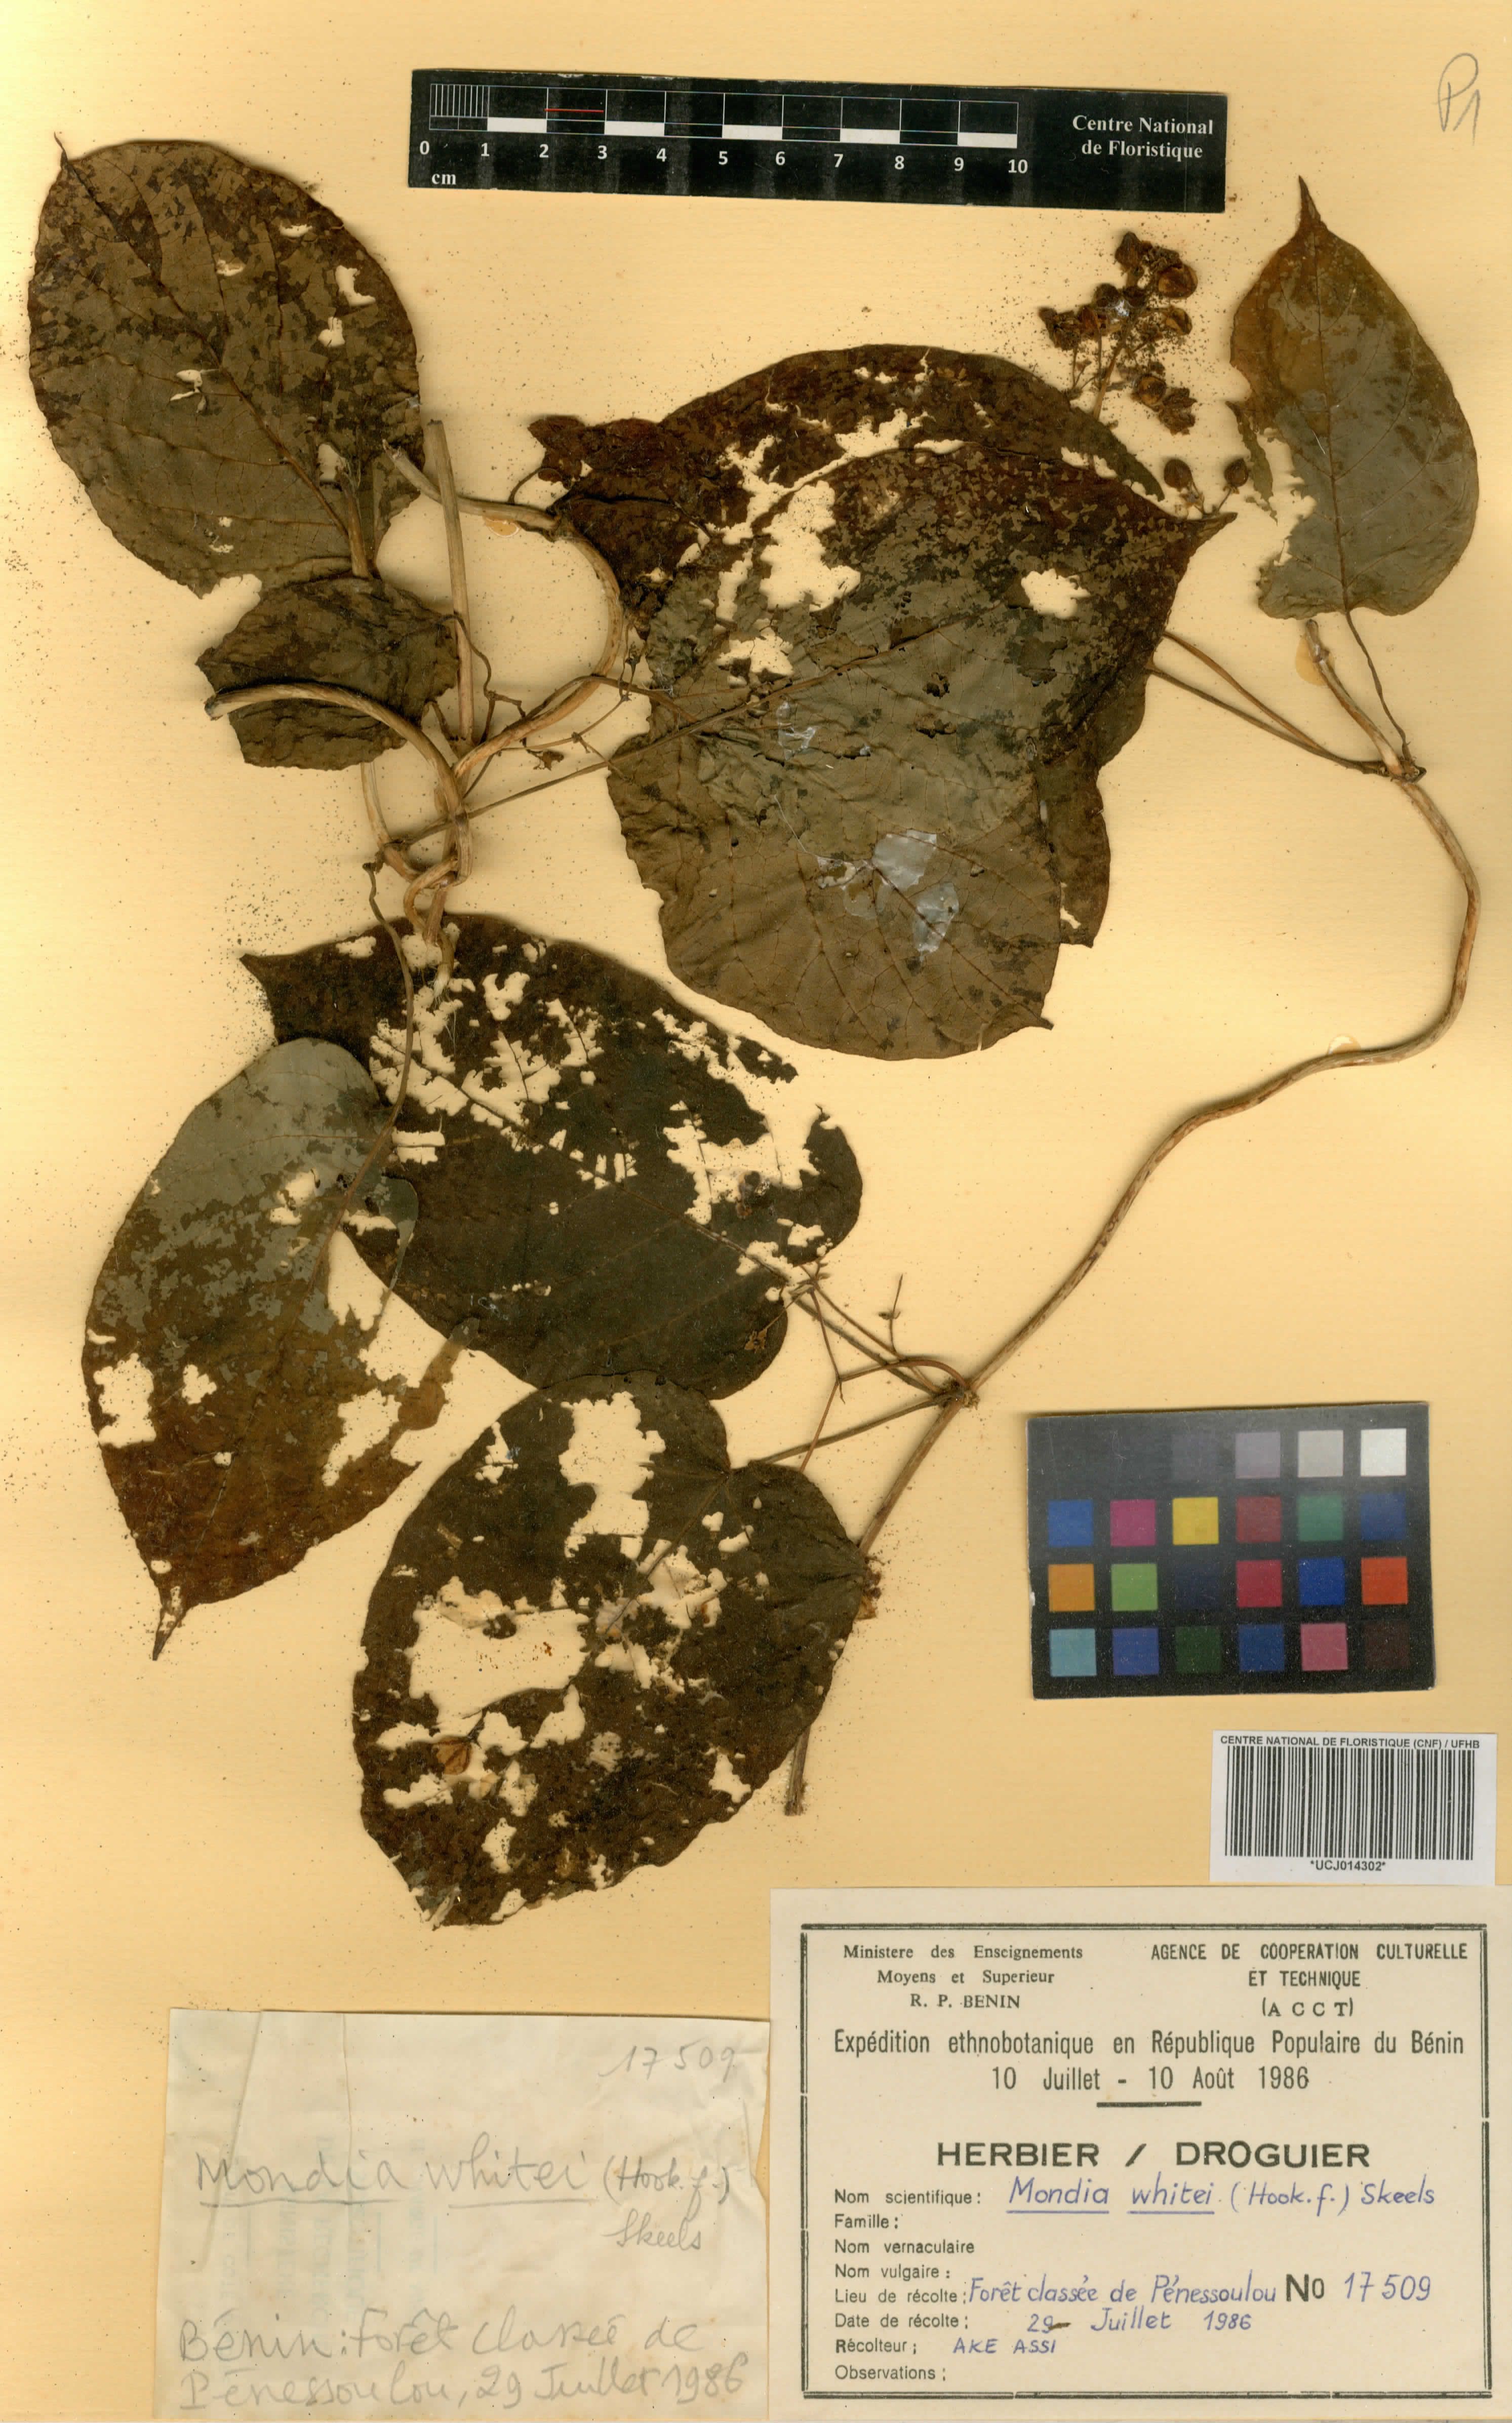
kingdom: Plantae
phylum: Tracheophyta
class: Magnoliopsida
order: Gentianales
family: Apocynaceae
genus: Mondia
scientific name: Mondia whitei
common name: Mondia
